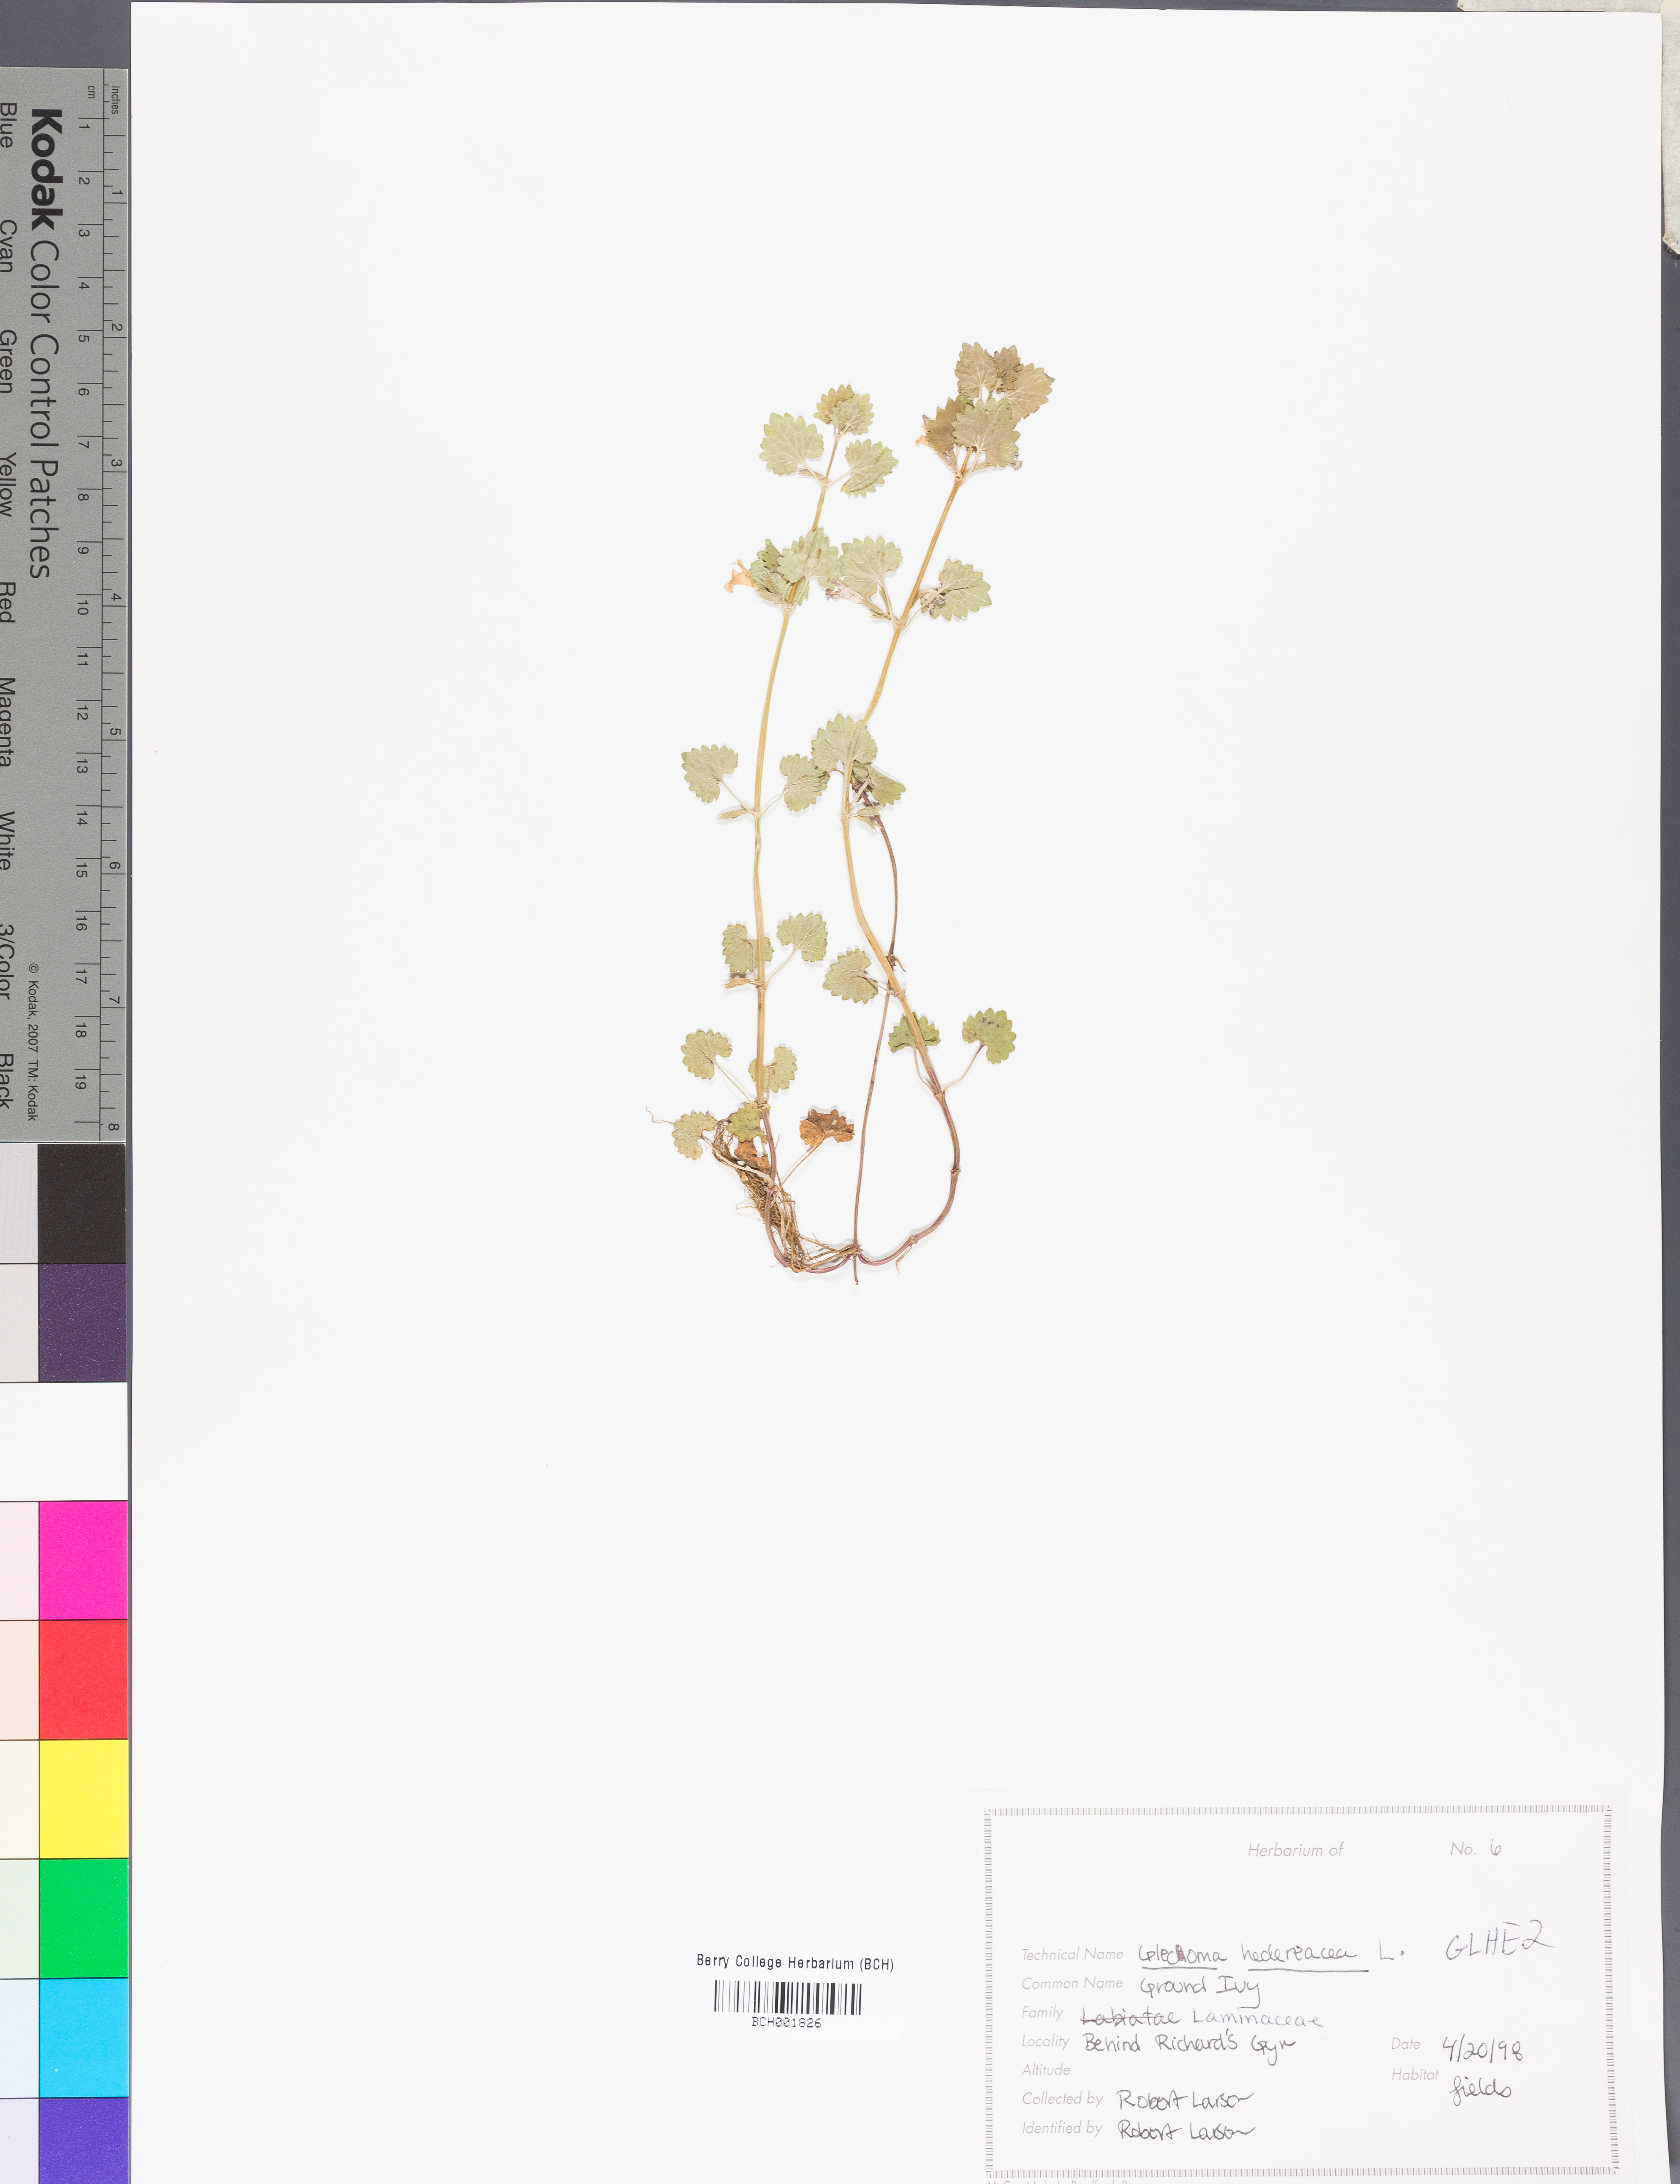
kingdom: Plantae
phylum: Tracheophyta
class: Magnoliopsida
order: Lamiales
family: Lamiaceae
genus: Glechoma
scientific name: Glechoma hederacea
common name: Ground ivy
